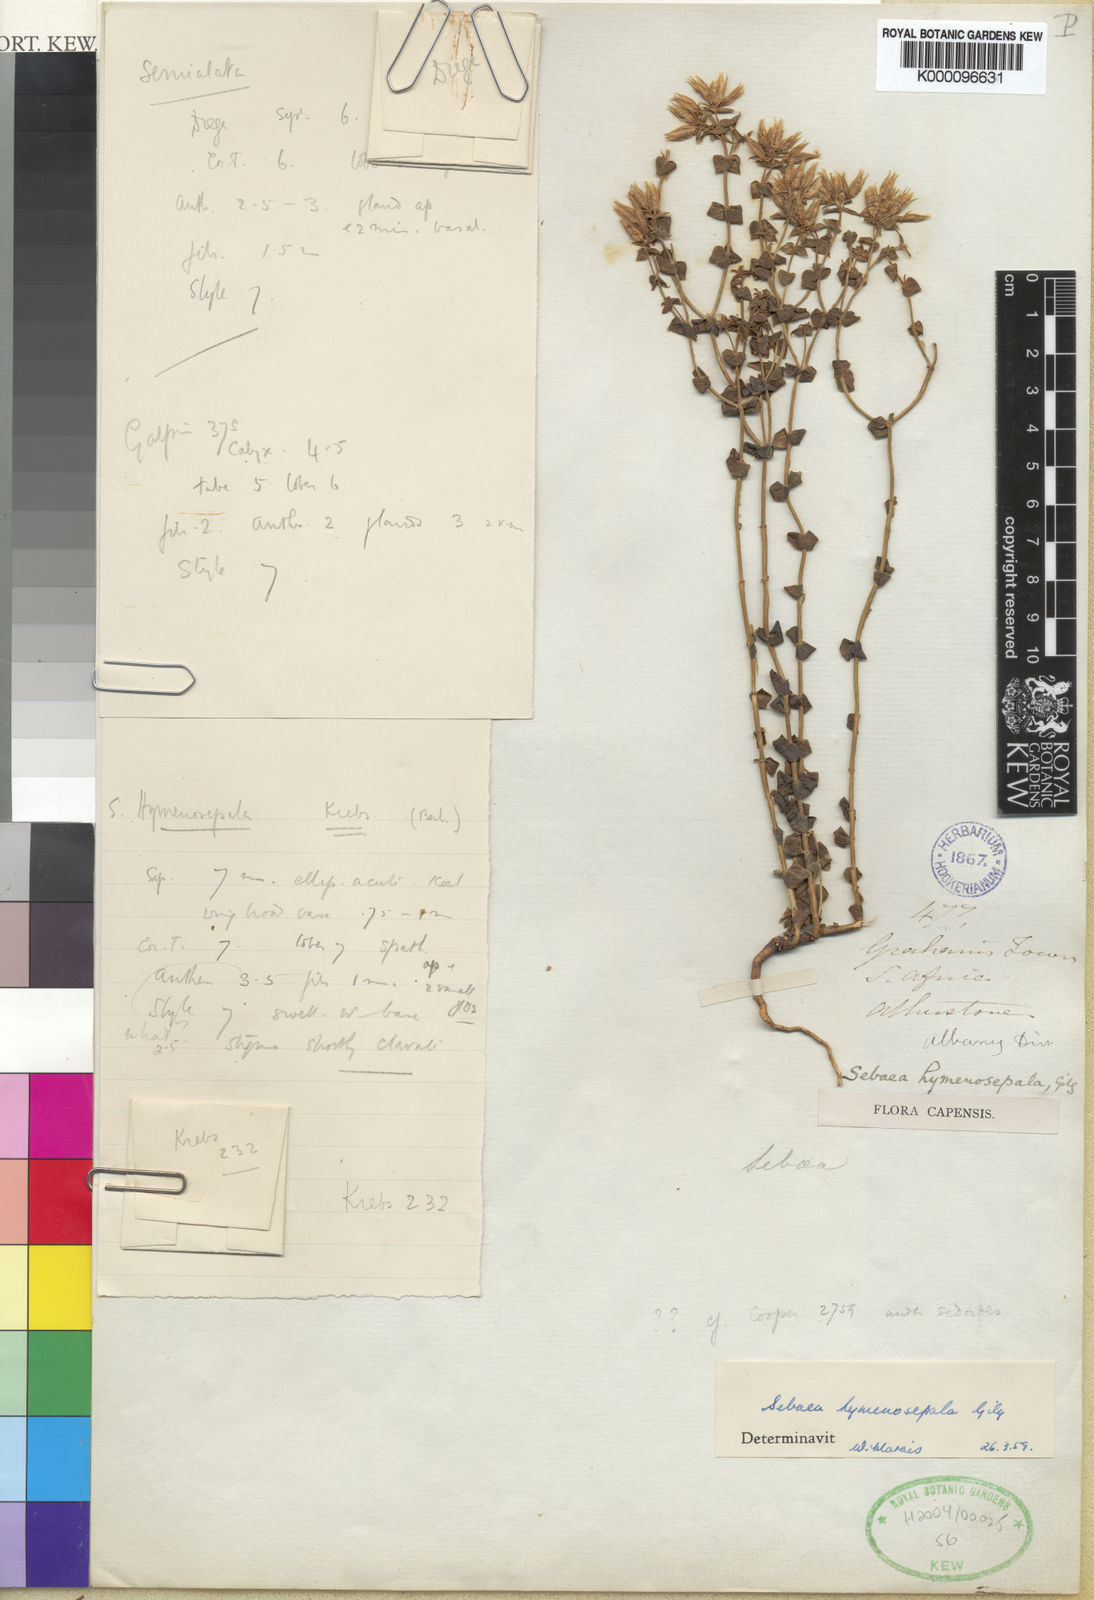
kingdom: Plantae
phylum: Tracheophyta
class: Magnoliopsida
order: Gentianales
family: Gentianaceae
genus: Sebaea
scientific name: Sebaea hymenosepala
